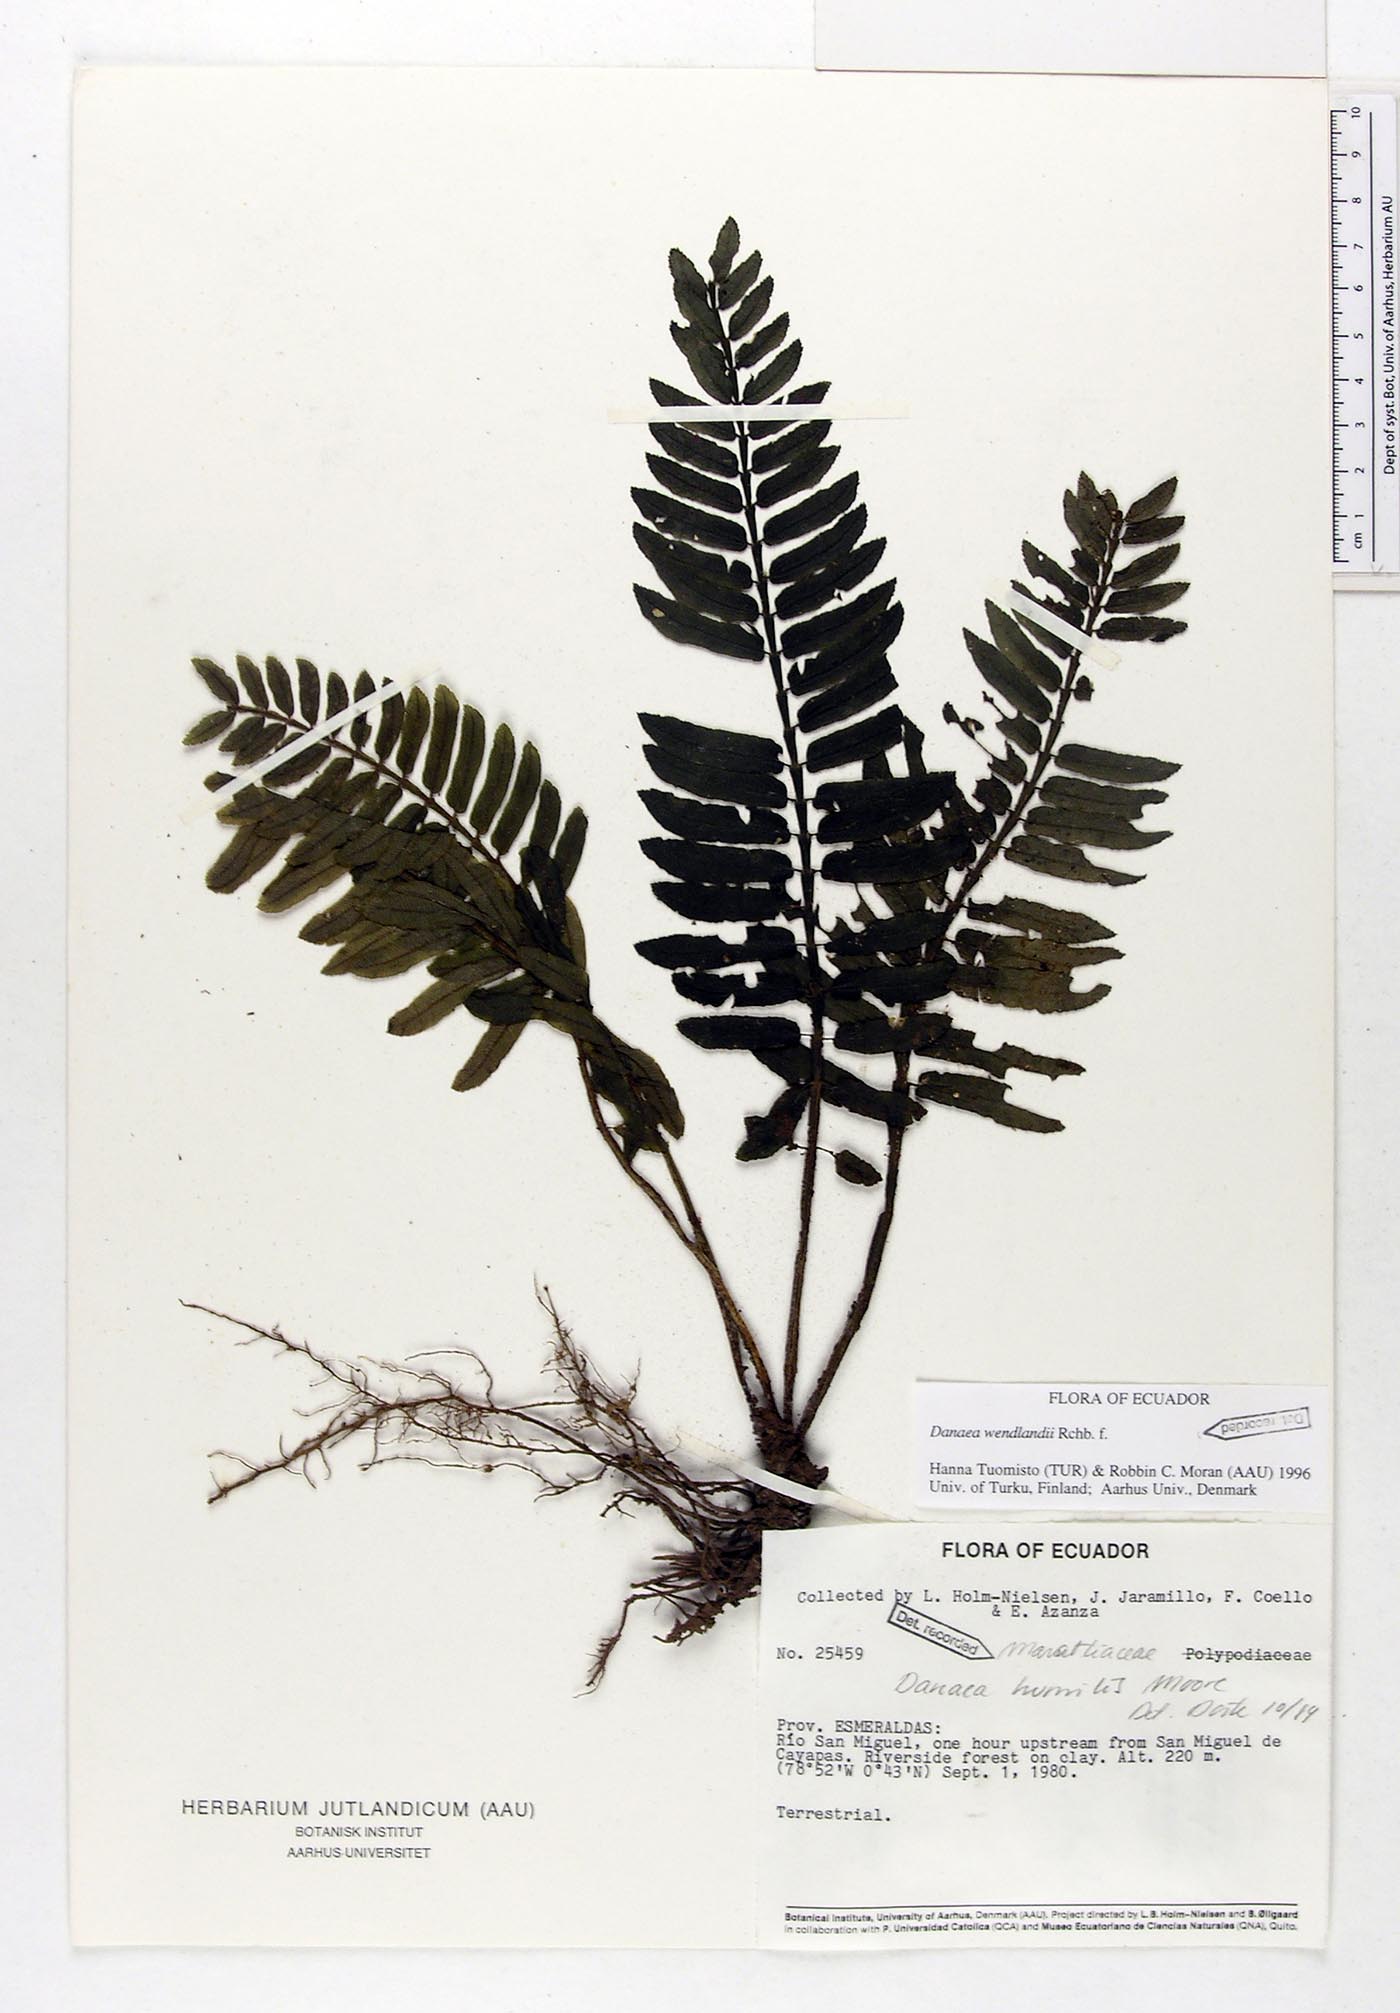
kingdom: Plantae
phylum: Tracheophyta
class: Polypodiopsida
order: Marattiales
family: Marattiaceae
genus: Danaea
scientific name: Danaea humilis
